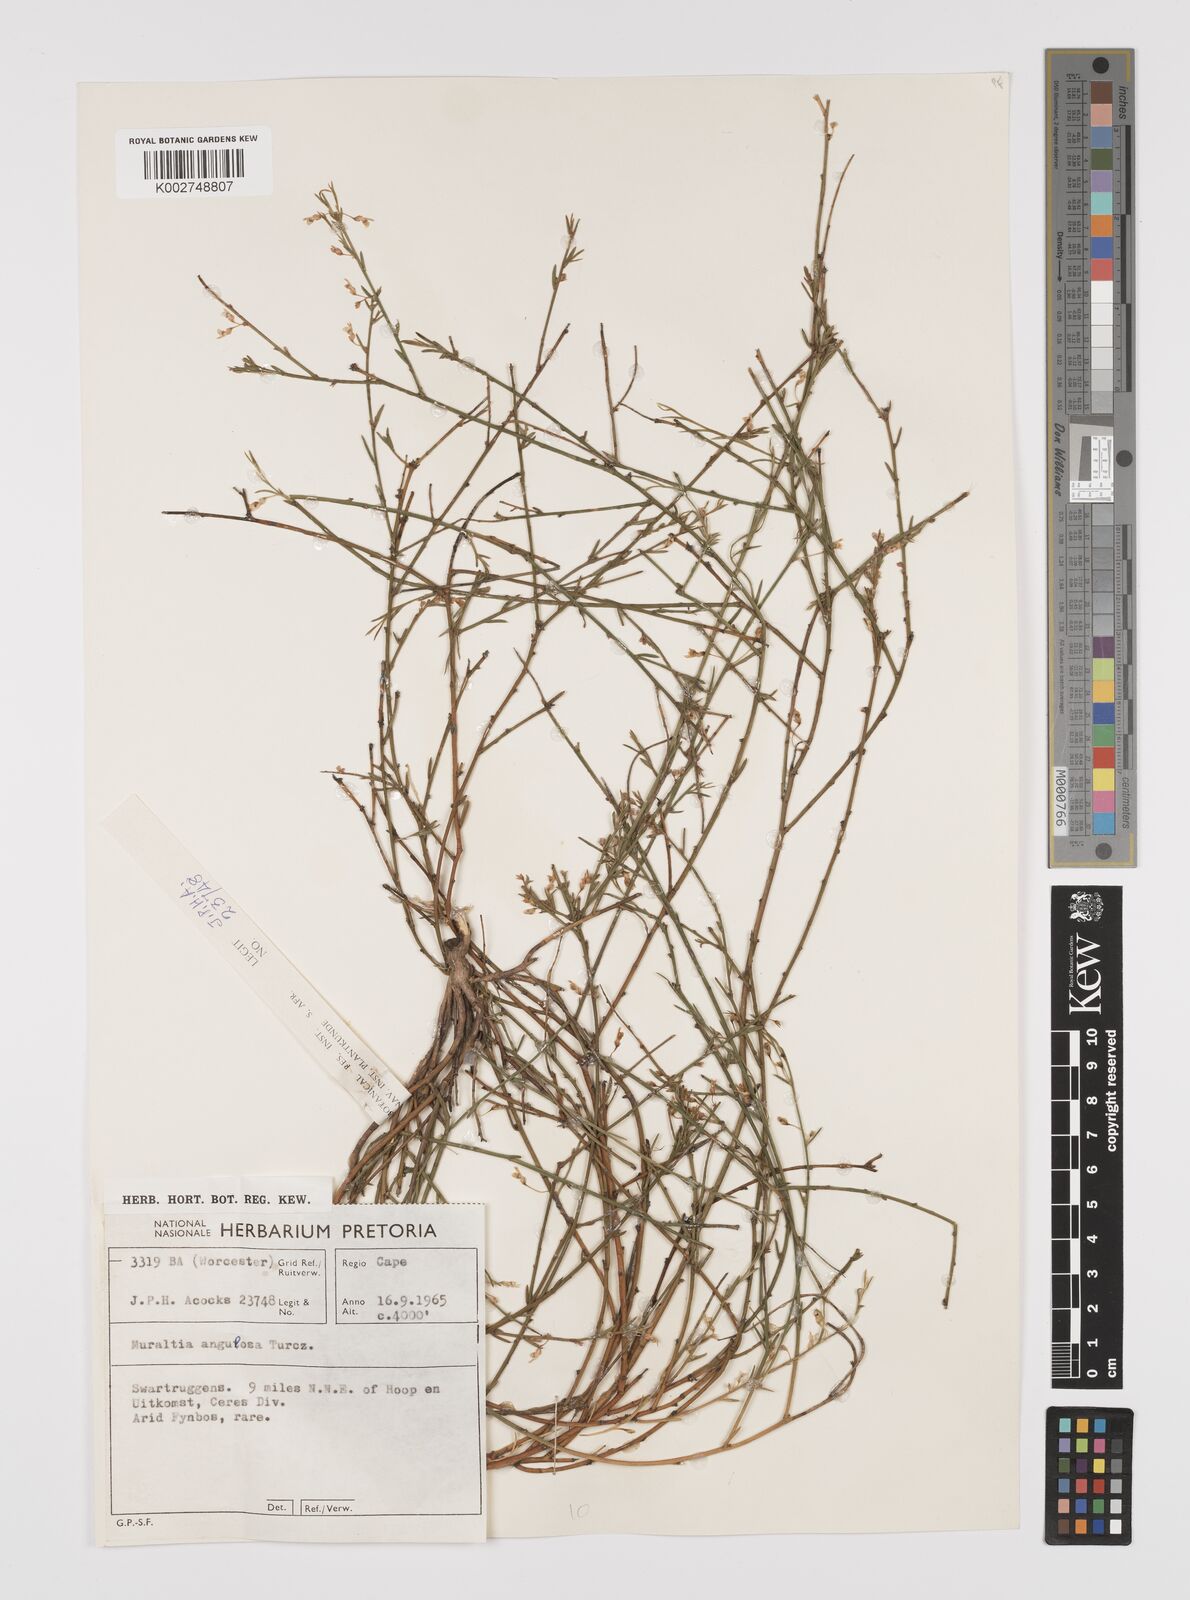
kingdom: Plantae
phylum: Tracheophyta
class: Magnoliopsida
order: Fabales
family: Polygalaceae
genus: Muraltia
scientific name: Muraltia angulosa
